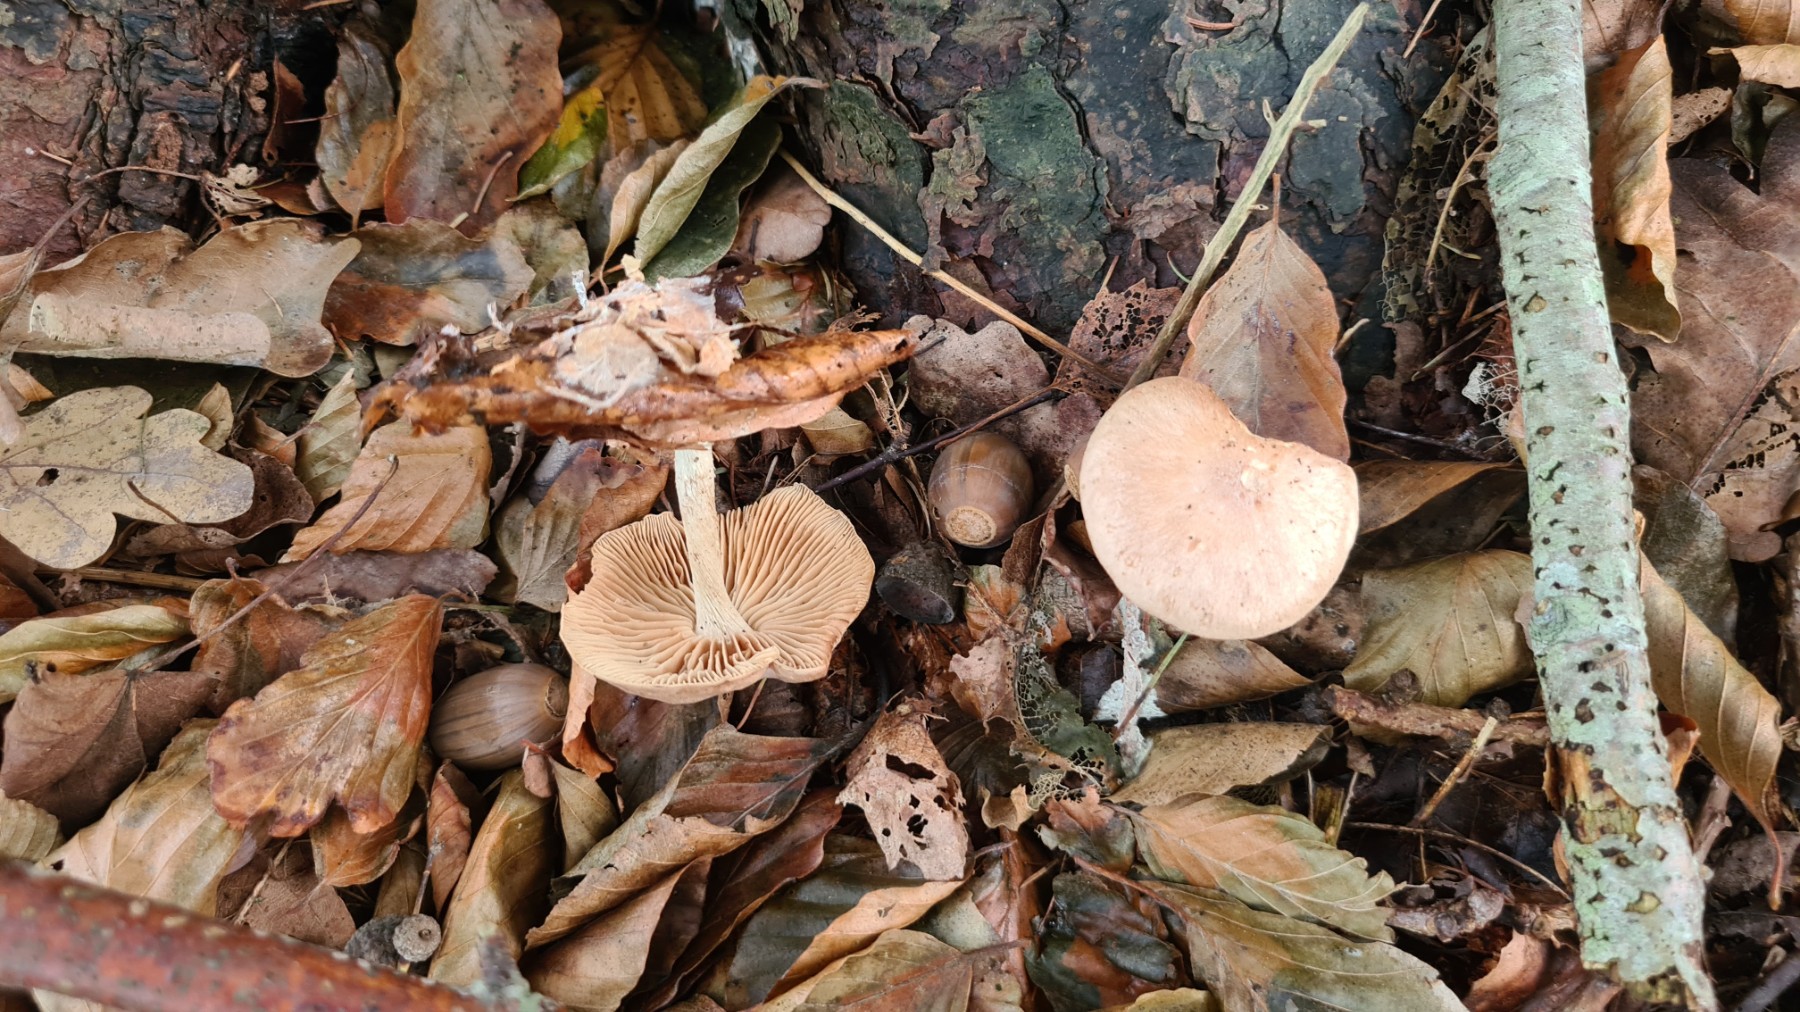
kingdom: Fungi
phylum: Basidiomycota
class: Agaricomycetes
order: Agaricales
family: Omphalotaceae
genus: Collybiopsis
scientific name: Collybiopsis peronata
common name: bestøvlet fladhat
